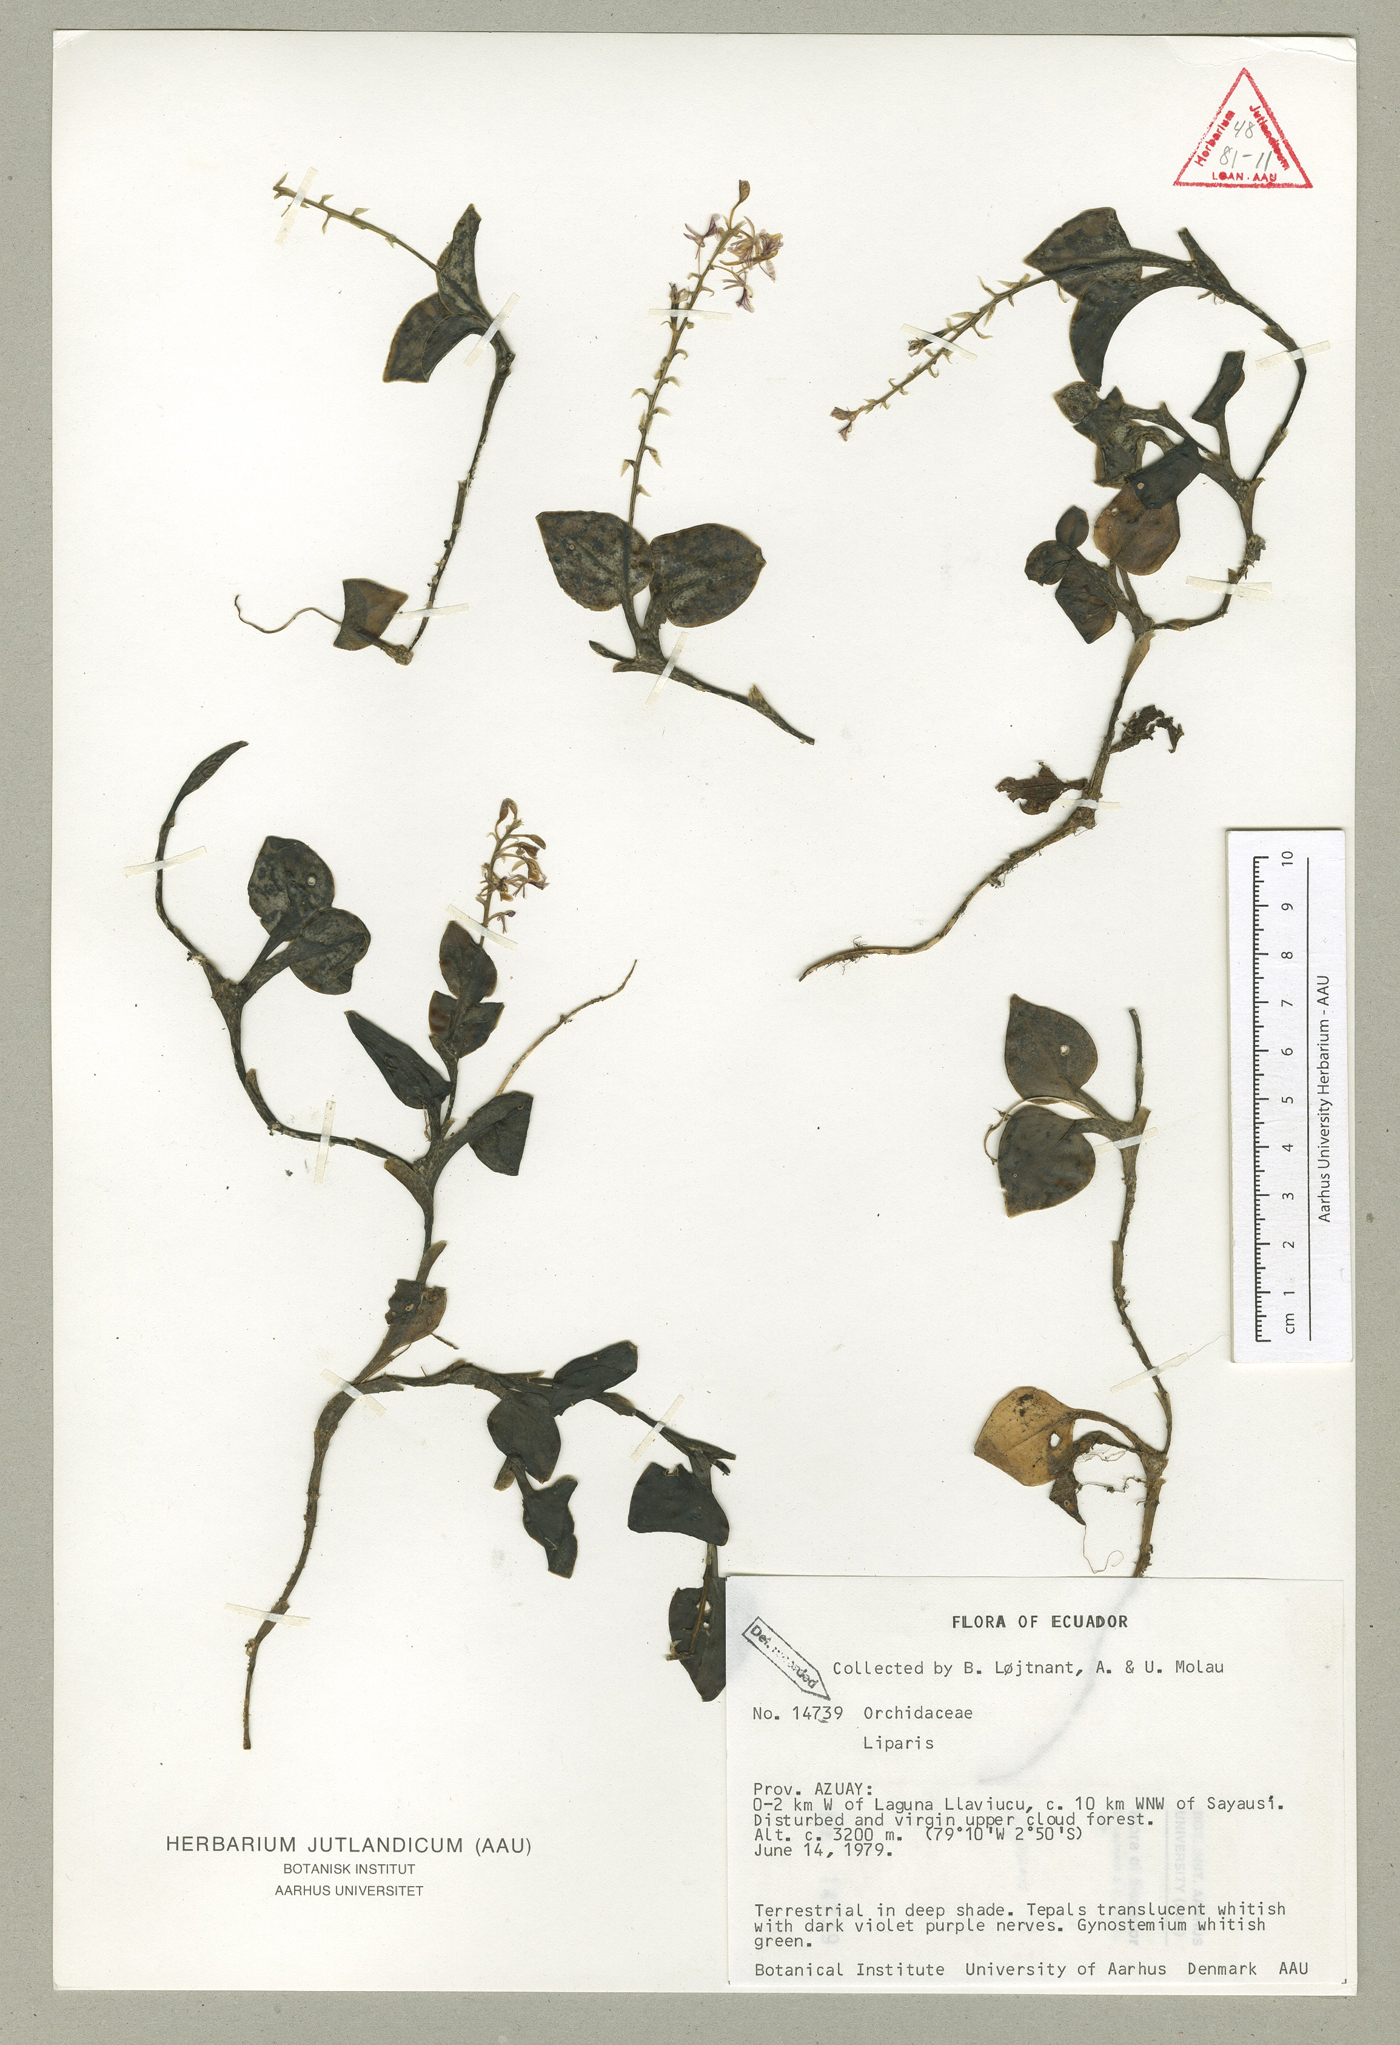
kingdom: Plantae
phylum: Tracheophyta
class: Liliopsida
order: Asparagales
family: Orchidaceae
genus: Liparis
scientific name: Liparis elegantula
